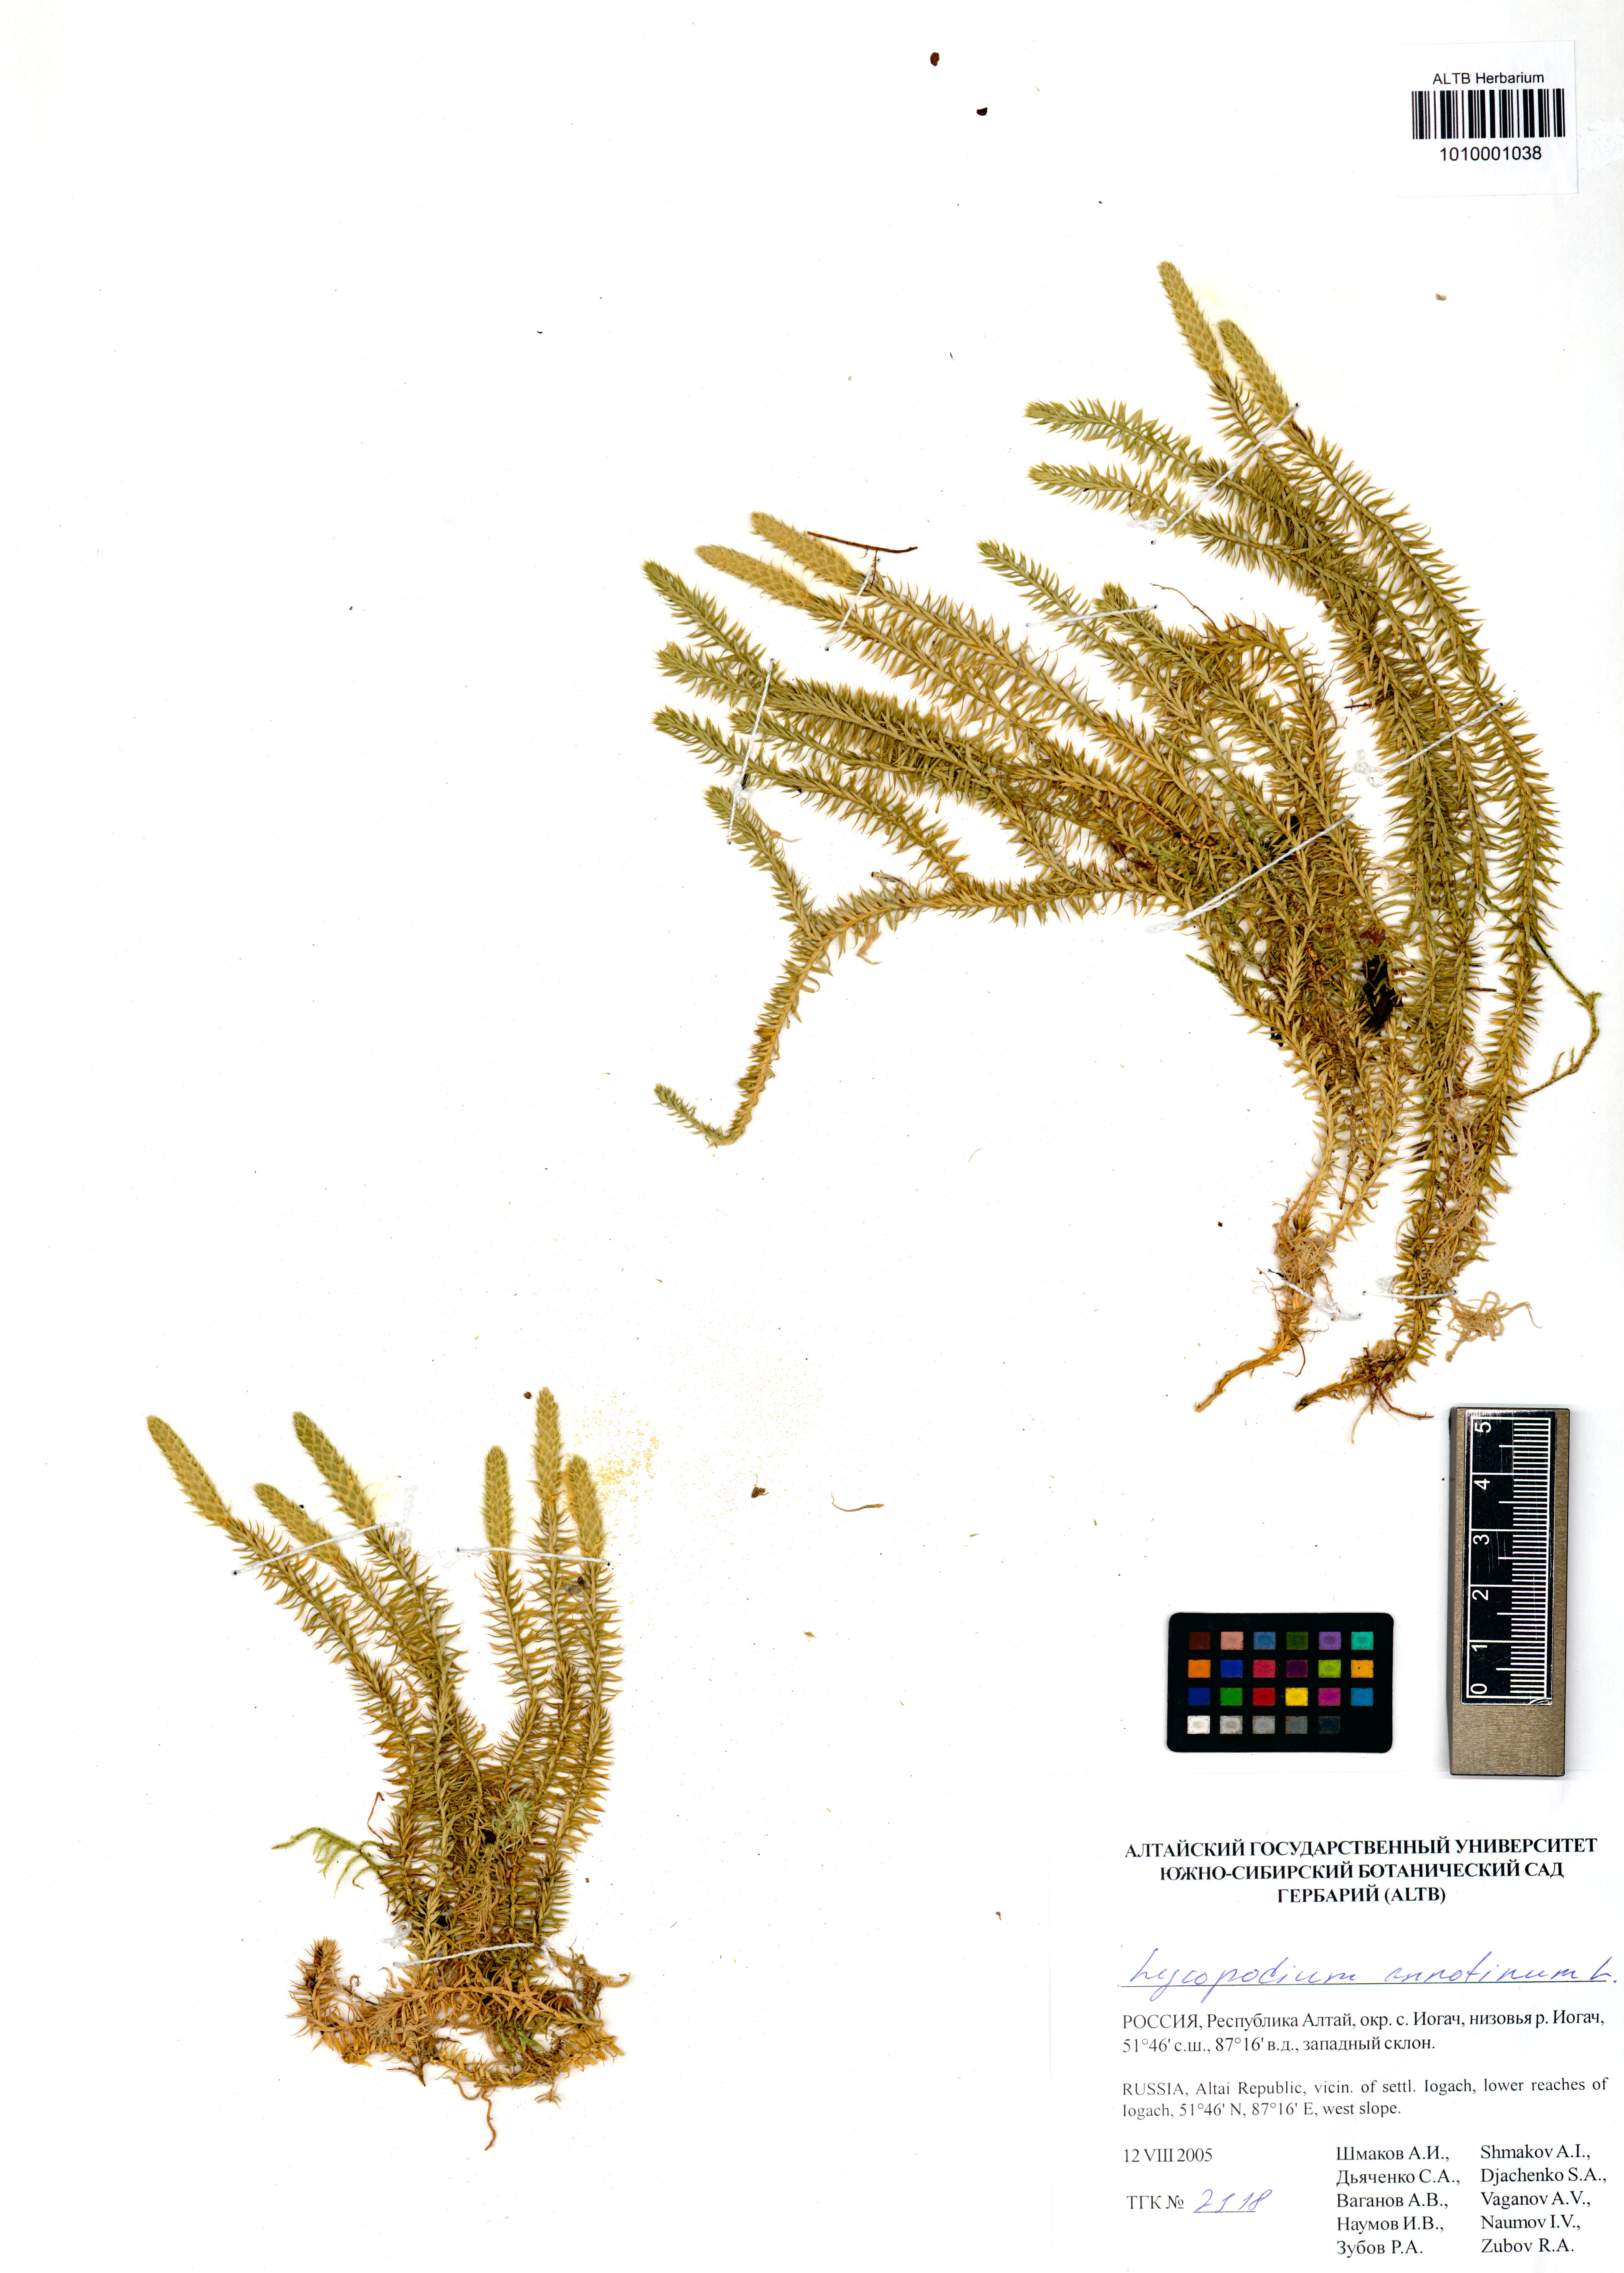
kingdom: Plantae
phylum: Tracheophyta
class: Lycopodiopsida
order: Lycopodiales
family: Lycopodiaceae
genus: Spinulum
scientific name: Spinulum annotinum
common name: Interrupted club-moss
